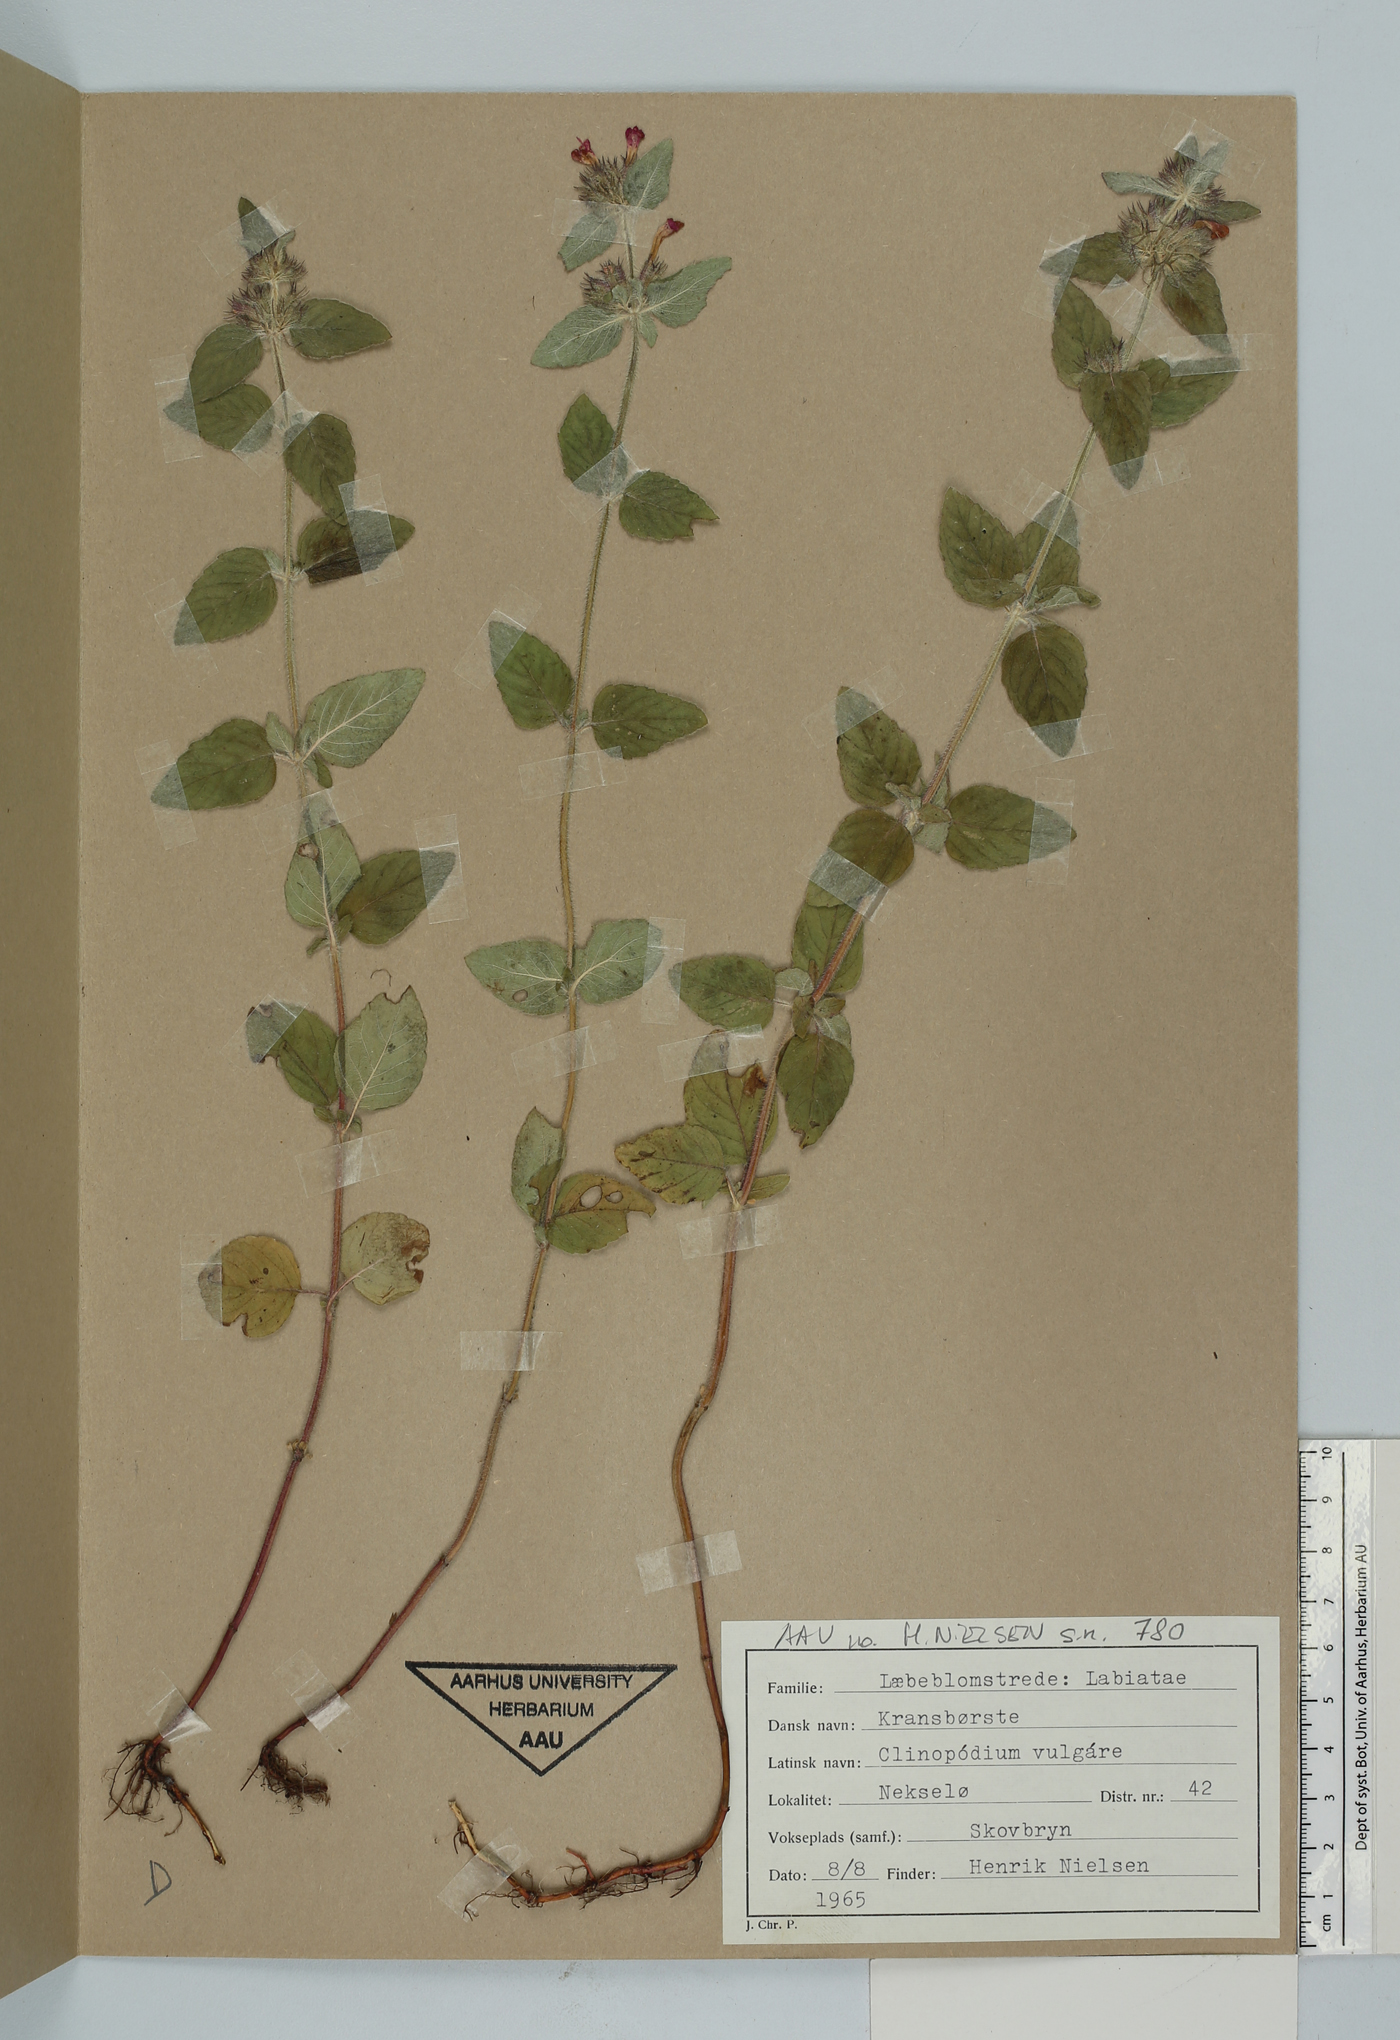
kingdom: Plantae
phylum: Tracheophyta
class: Magnoliopsida
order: Lamiales
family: Lamiaceae
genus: Clinopodium
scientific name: Clinopodium vulgare
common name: Wild basil
